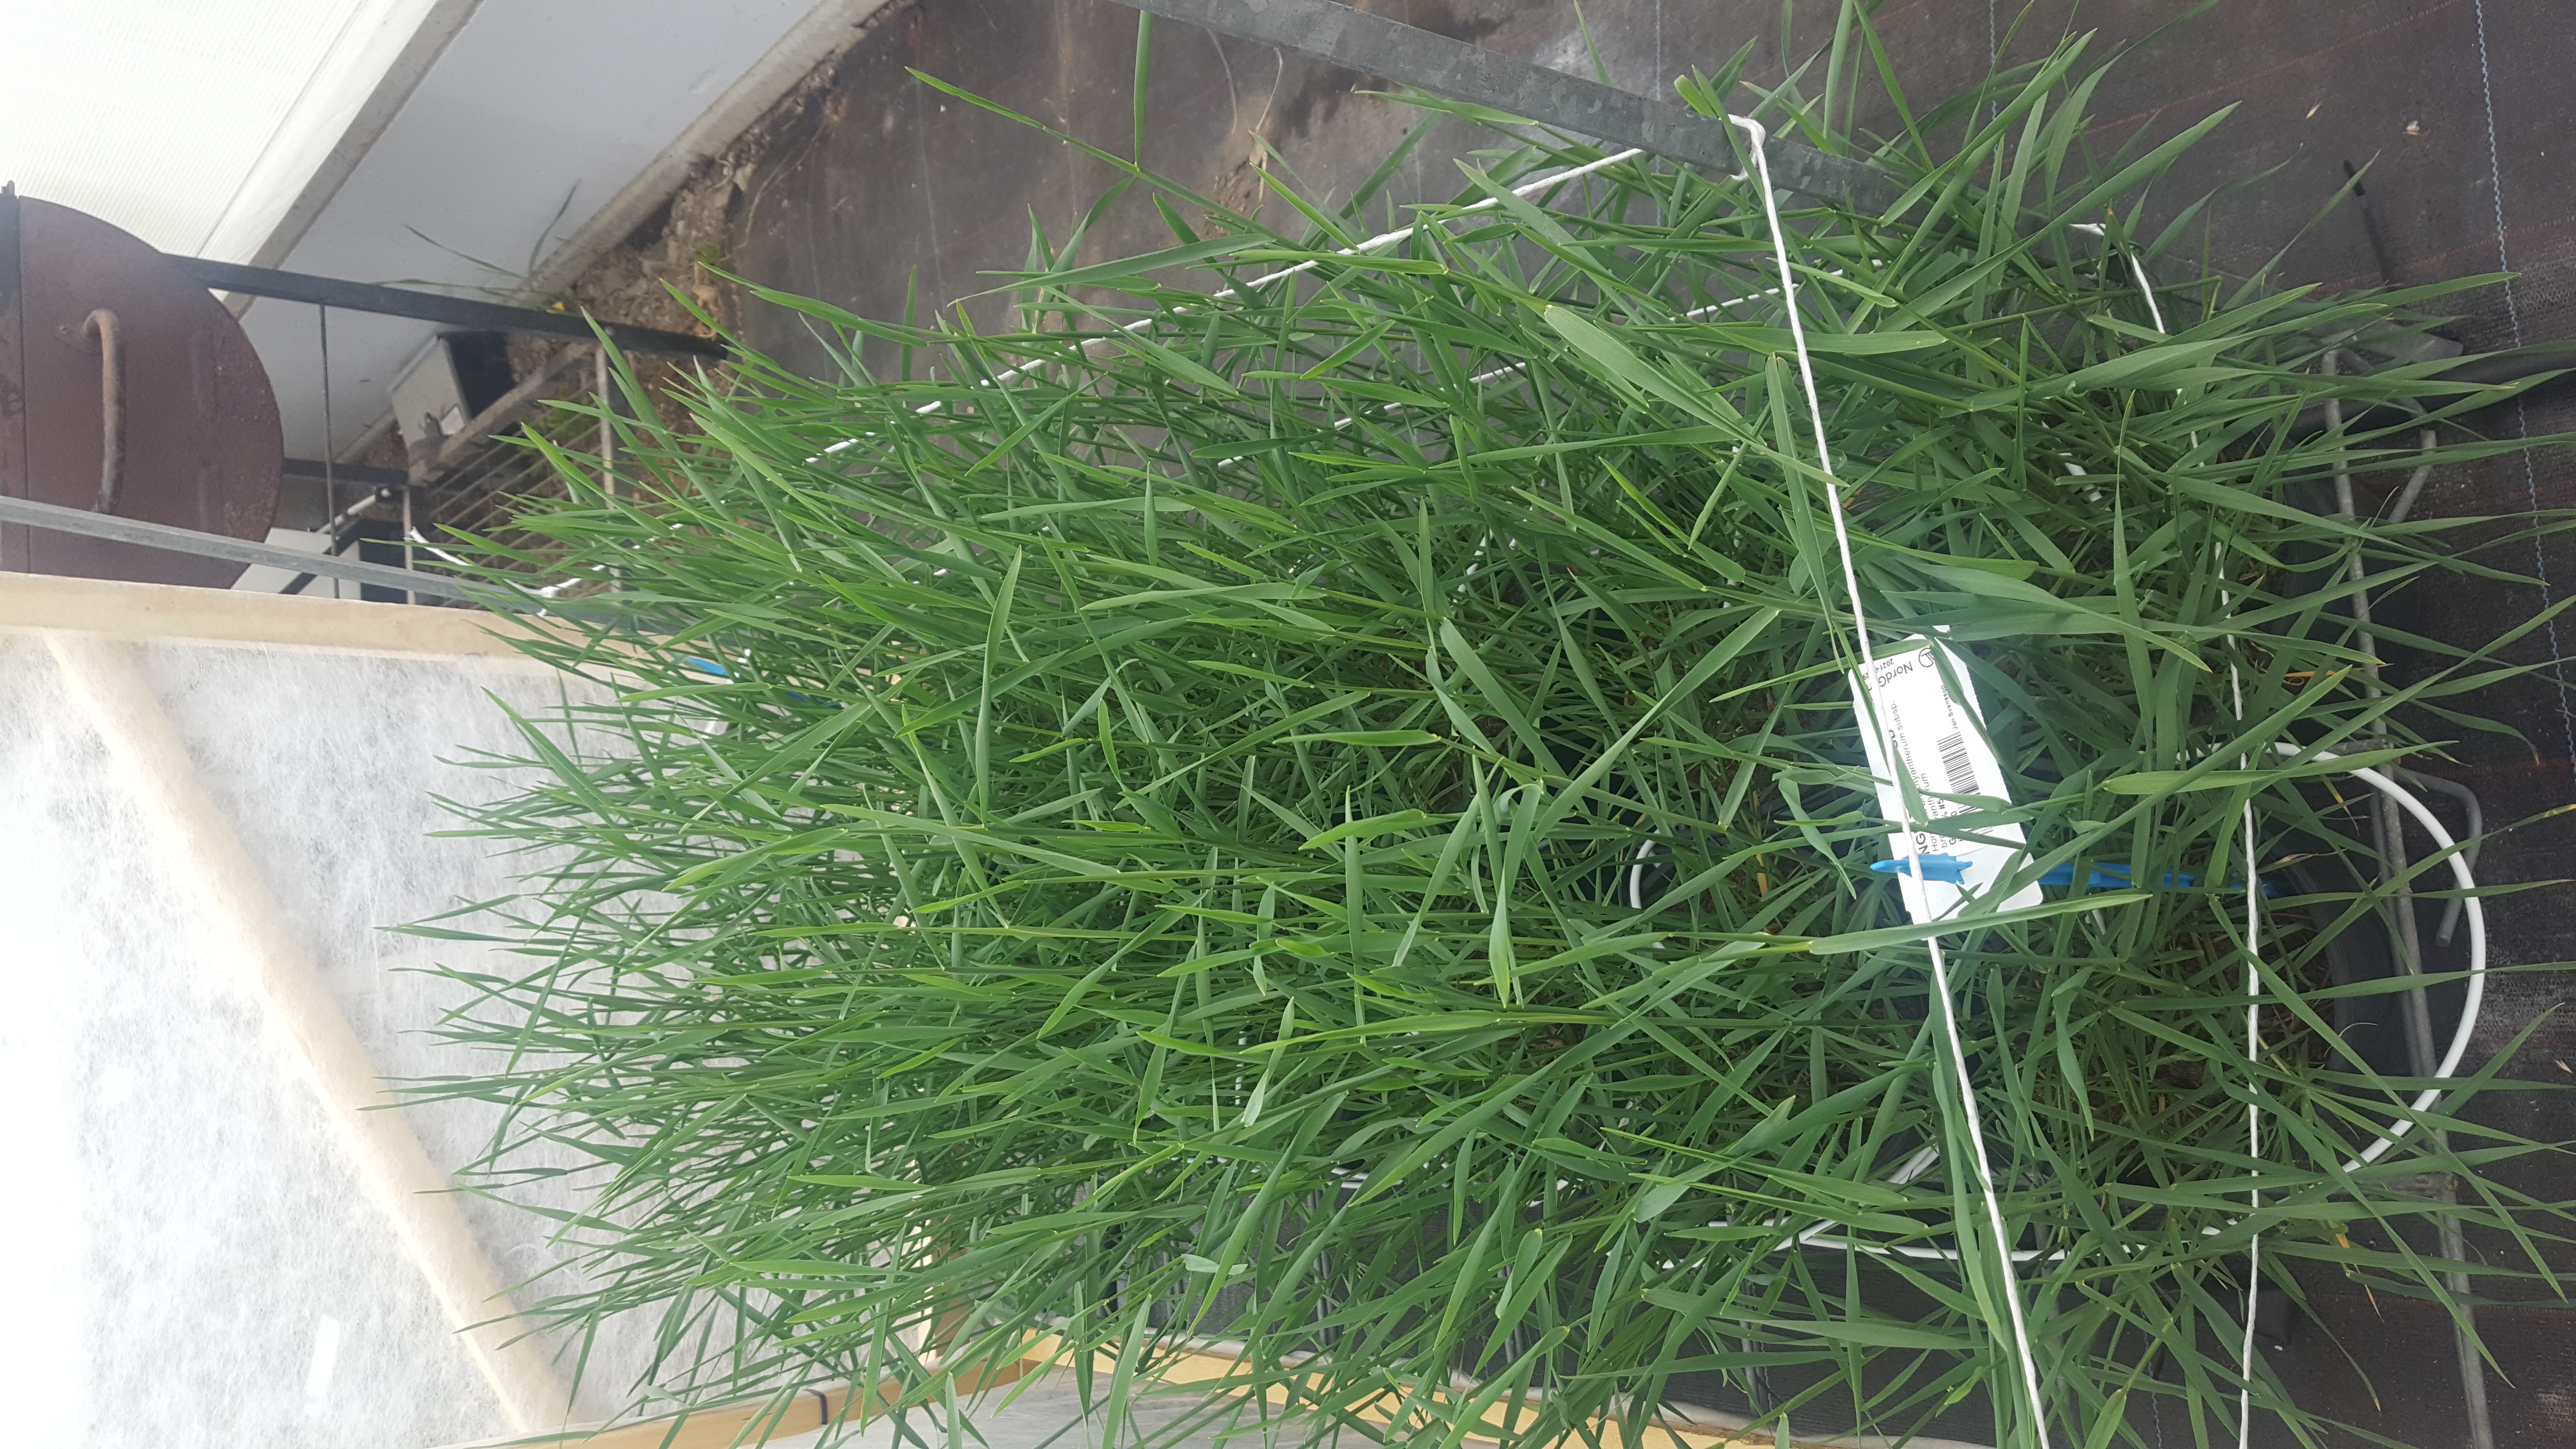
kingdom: Plantae
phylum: Tracheophyta
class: Liliopsida
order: Poales
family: Poaceae
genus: Hordeum
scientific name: Hordeum brachyantherum
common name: Meadow barley
